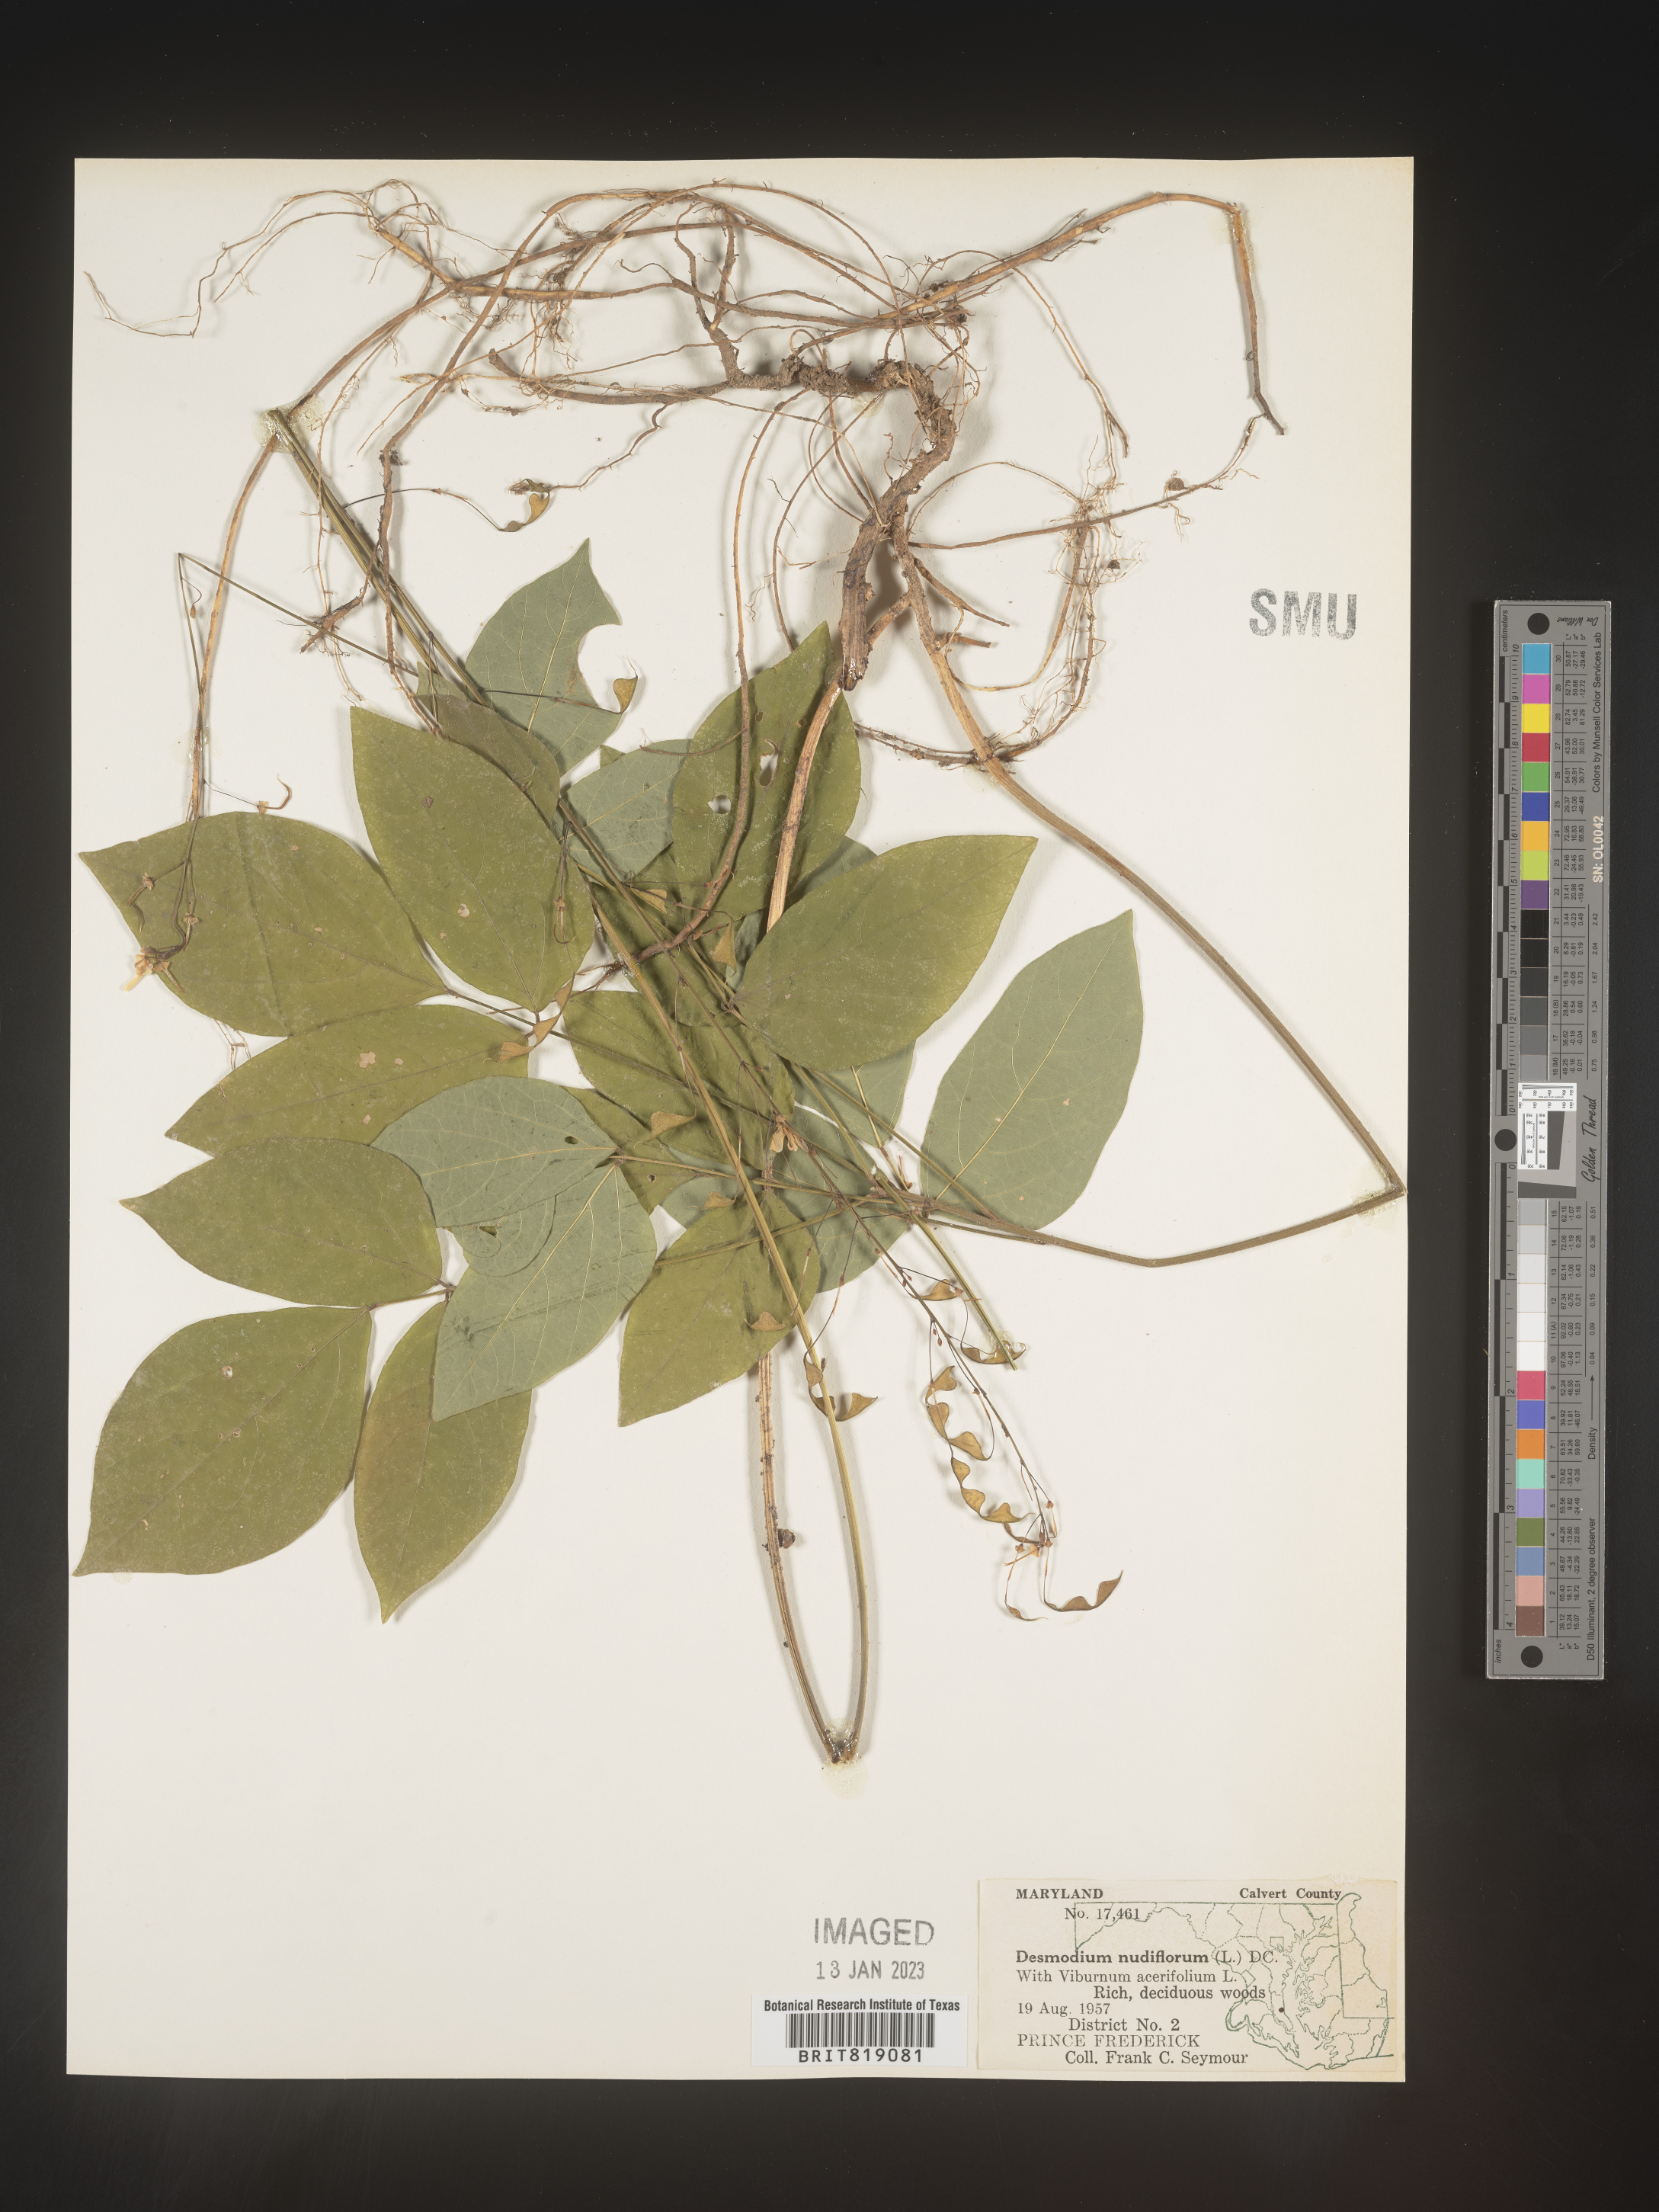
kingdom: Plantae
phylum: Tracheophyta
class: Magnoliopsida
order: Fabales
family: Fabaceae
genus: Hylodesmum
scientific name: Hylodesmum nudiflorum
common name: Bare-stemmed tick-trefoil
